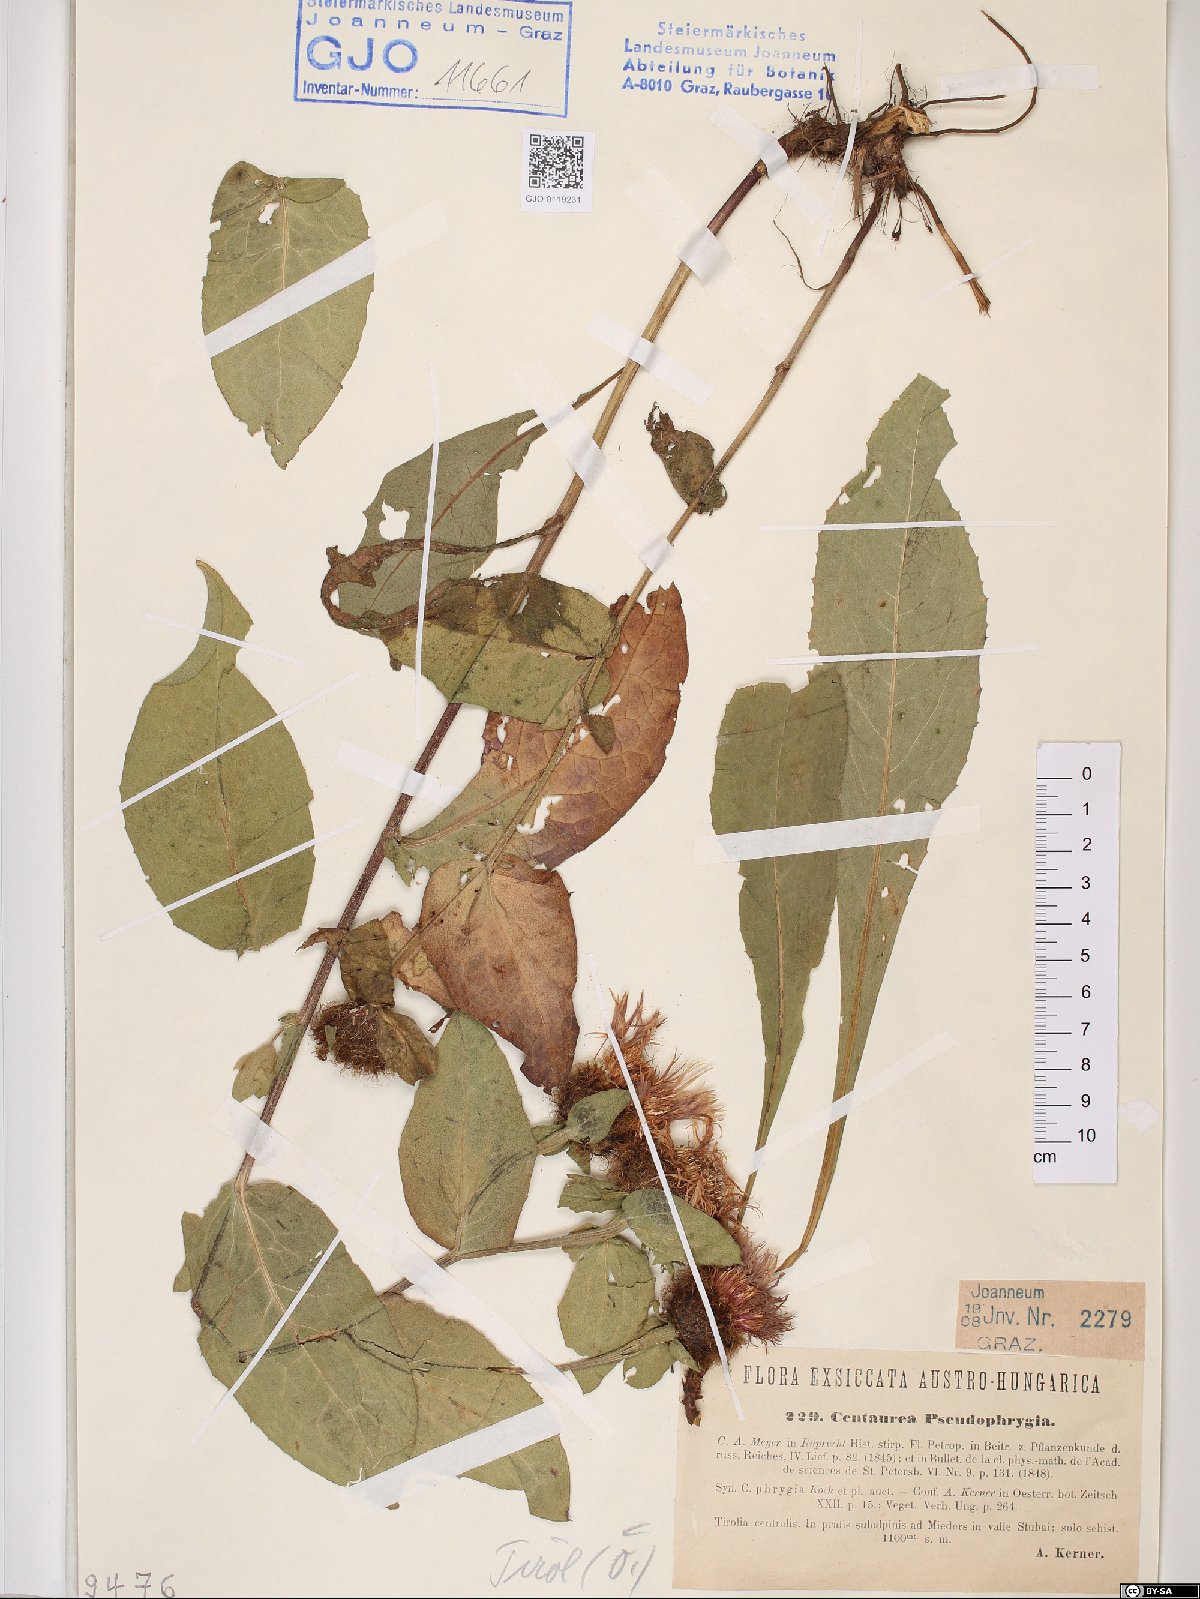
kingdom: Plantae
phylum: Tracheophyta
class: Magnoliopsida
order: Asterales
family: Asteraceae
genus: Centaurea
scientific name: Centaurea pseudophrygia
